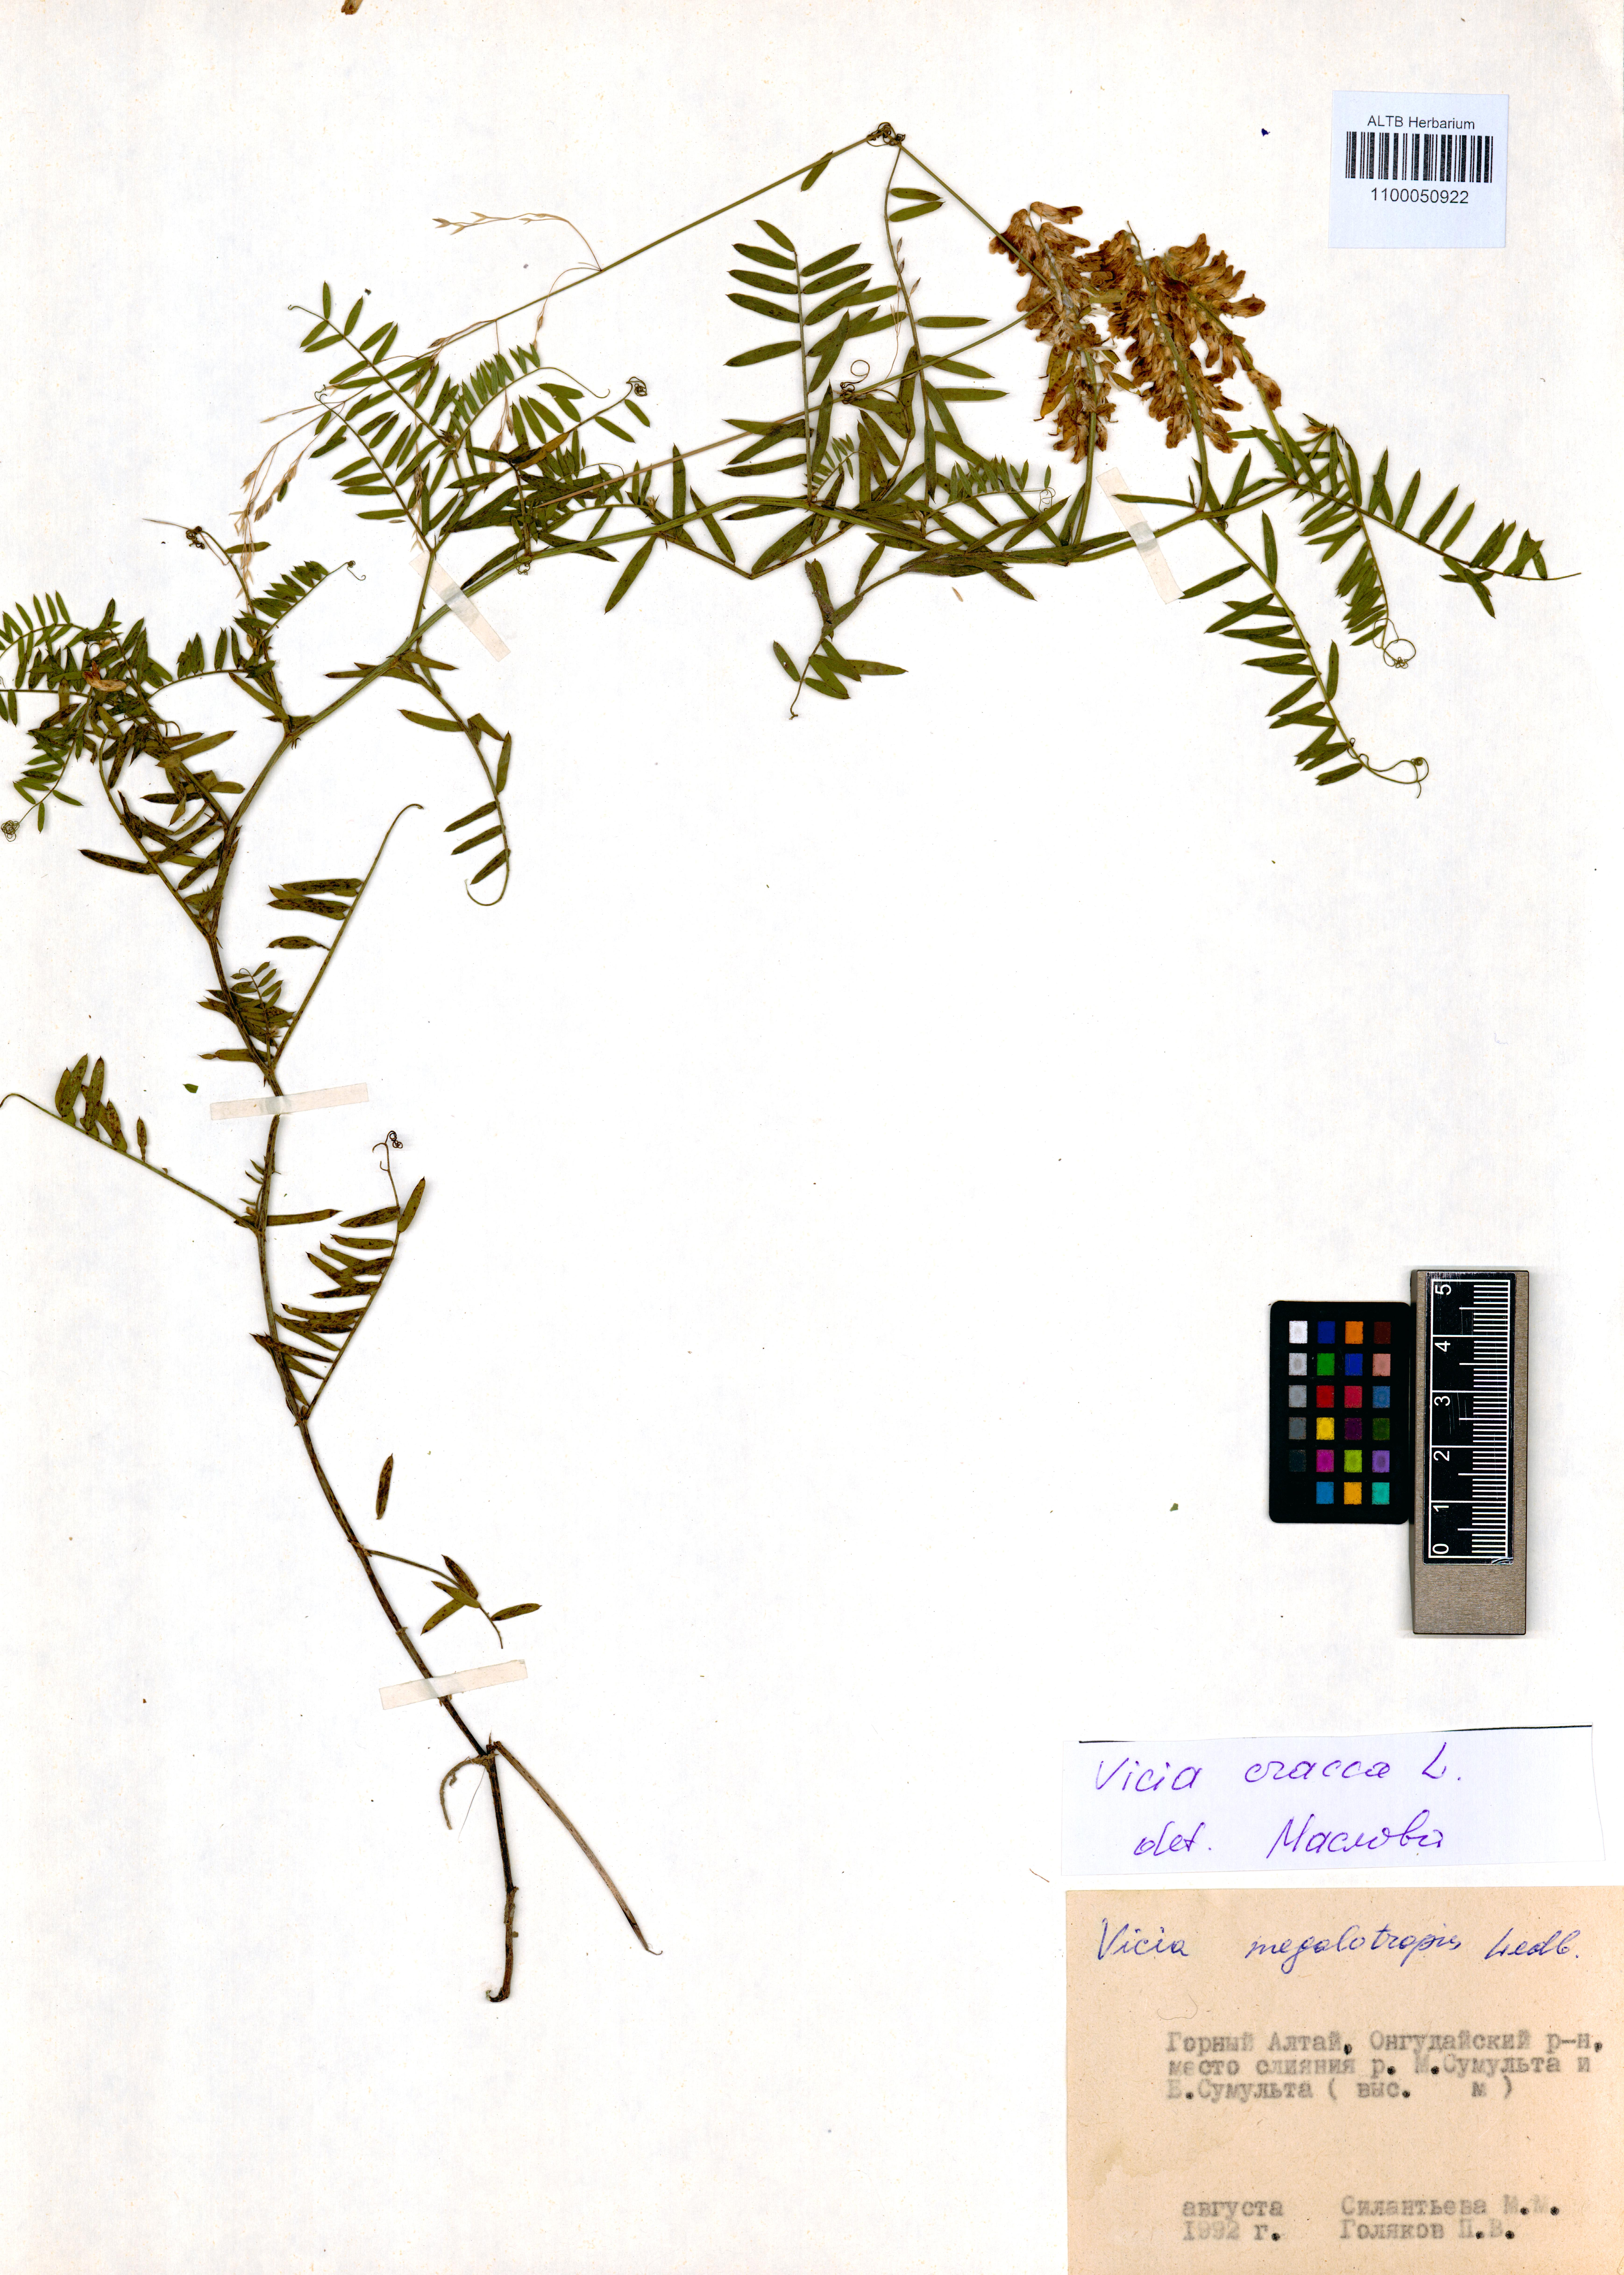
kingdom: Plantae
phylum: Tracheophyta
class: Magnoliopsida
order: Fabales
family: Fabaceae
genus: Vicia
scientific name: Vicia cracca
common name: Bird vetch
